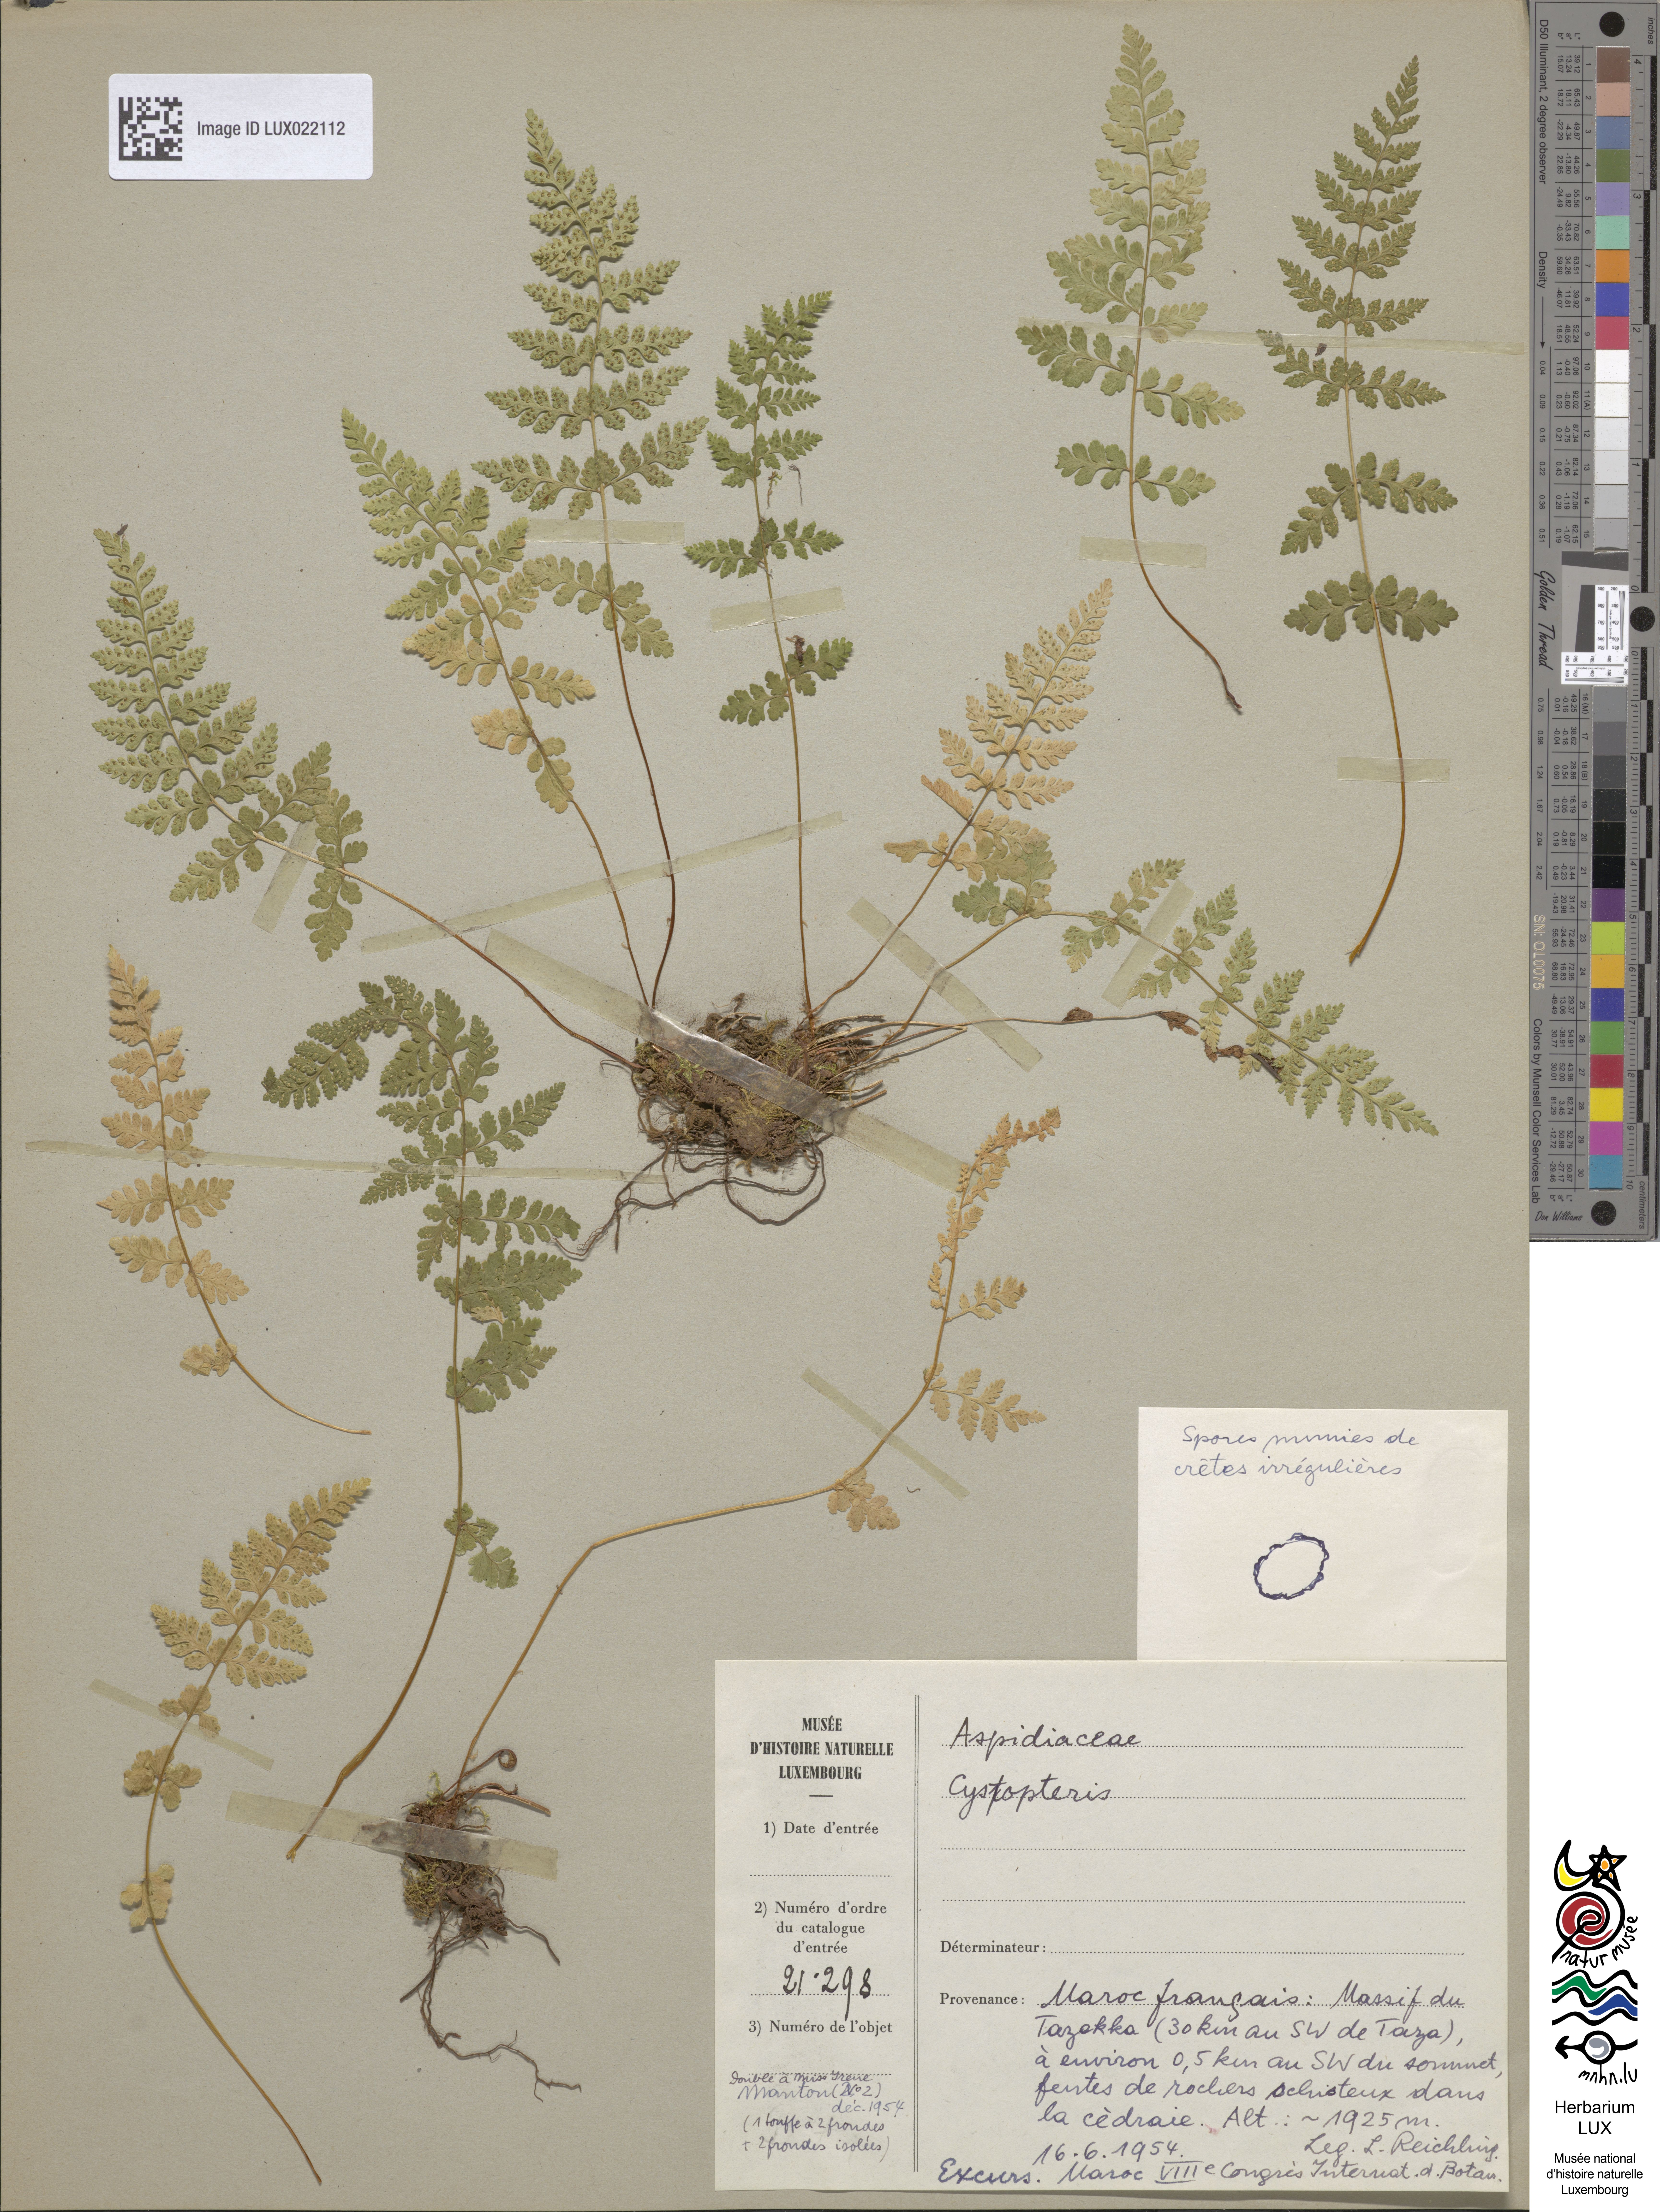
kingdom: Plantae
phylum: Tracheophyta
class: Polypodiopsida
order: Polypodiales
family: Cystopteridaceae
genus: Cystopteris
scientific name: Cystopteris
